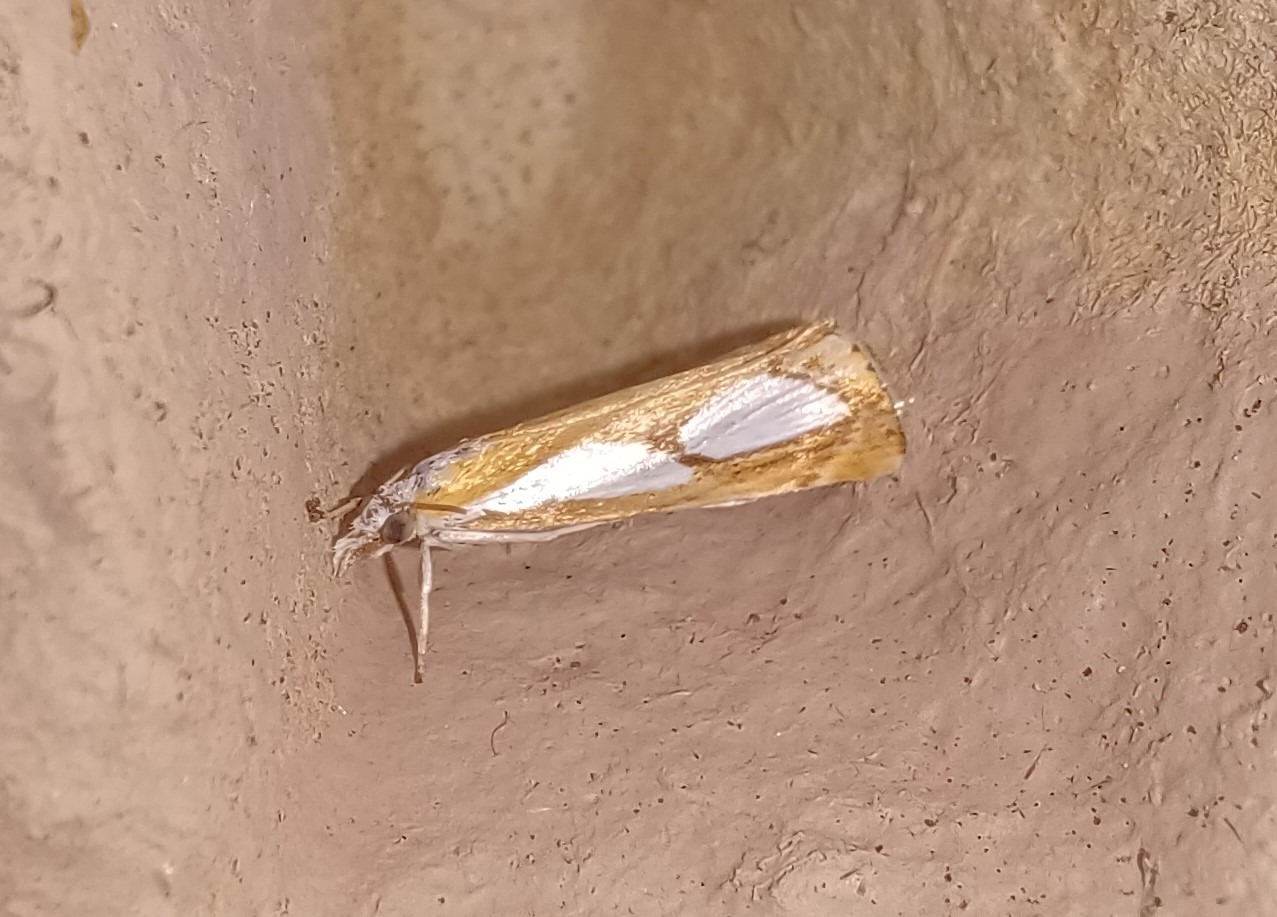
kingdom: Animalia
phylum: Arthropoda
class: Insecta
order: Lepidoptera
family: Crambidae
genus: Catoptria
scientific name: Catoptria pinella
